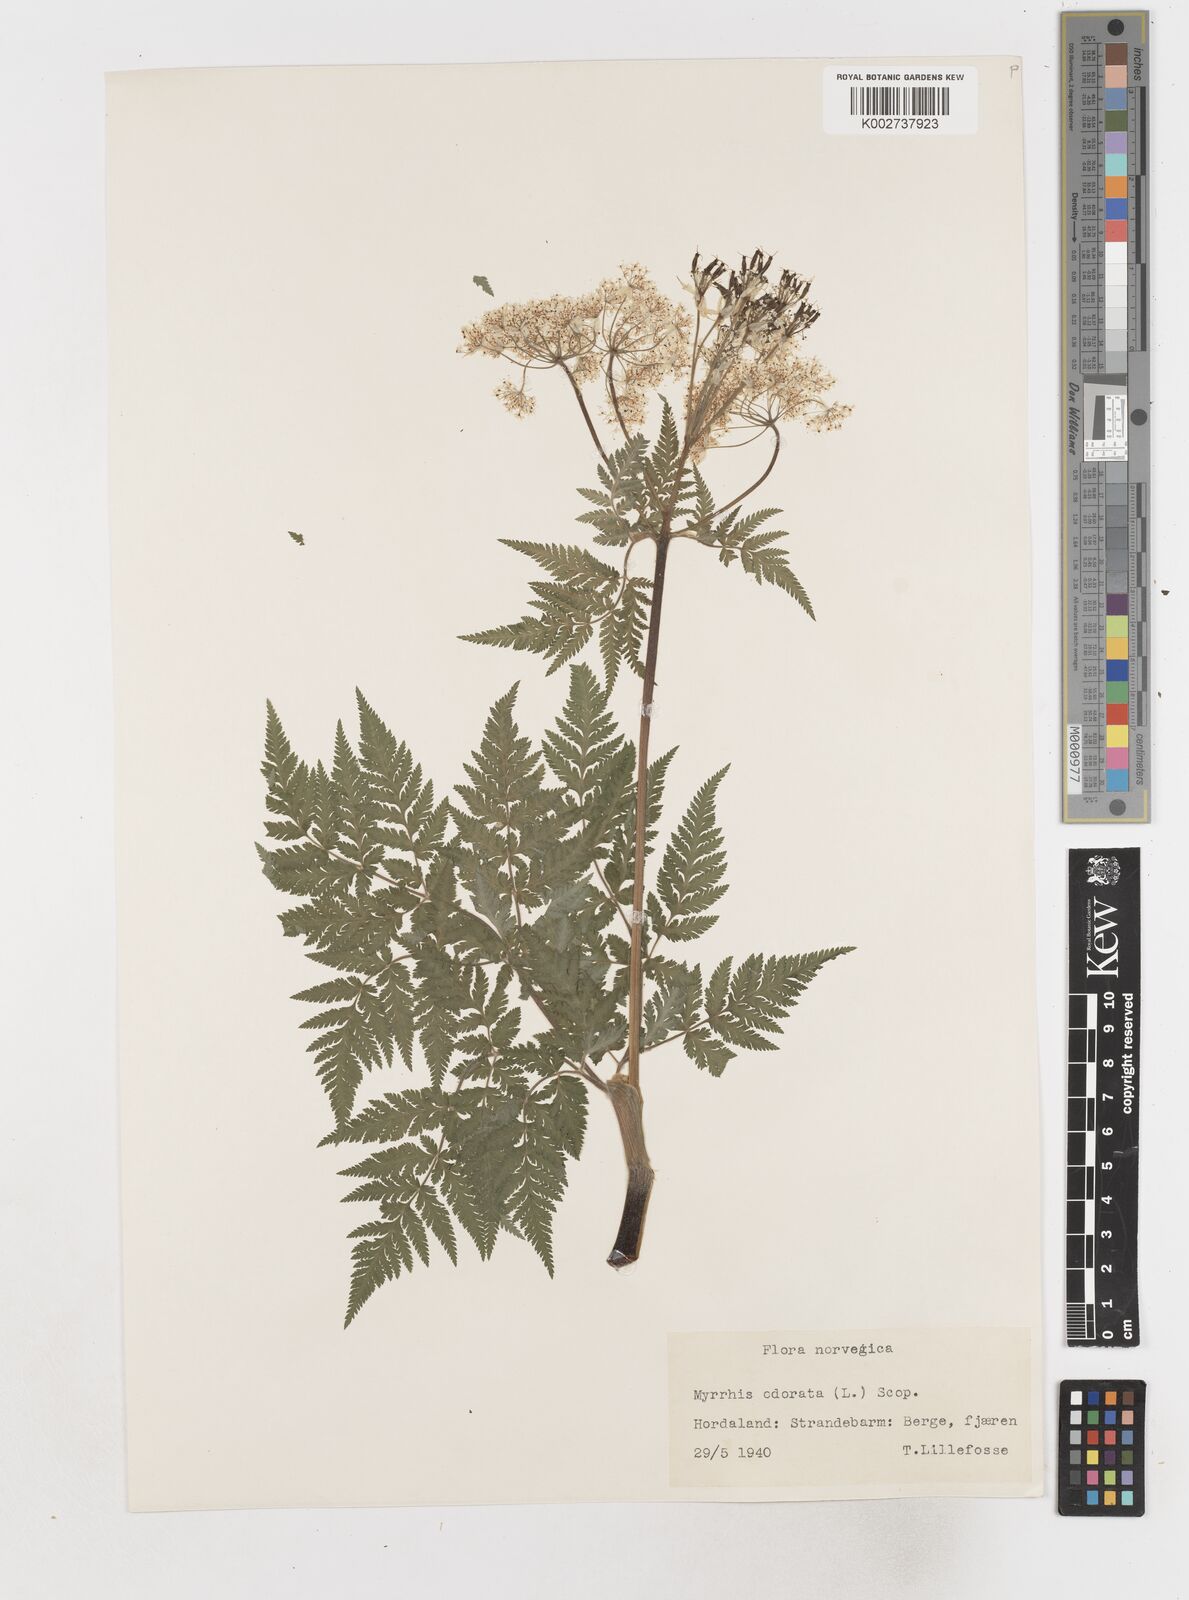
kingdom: Plantae
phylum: Tracheophyta
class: Magnoliopsida
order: Apiales
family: Apiaceae
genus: Myrrhis
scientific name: Myrrhis odorata
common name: Sweet cicely
